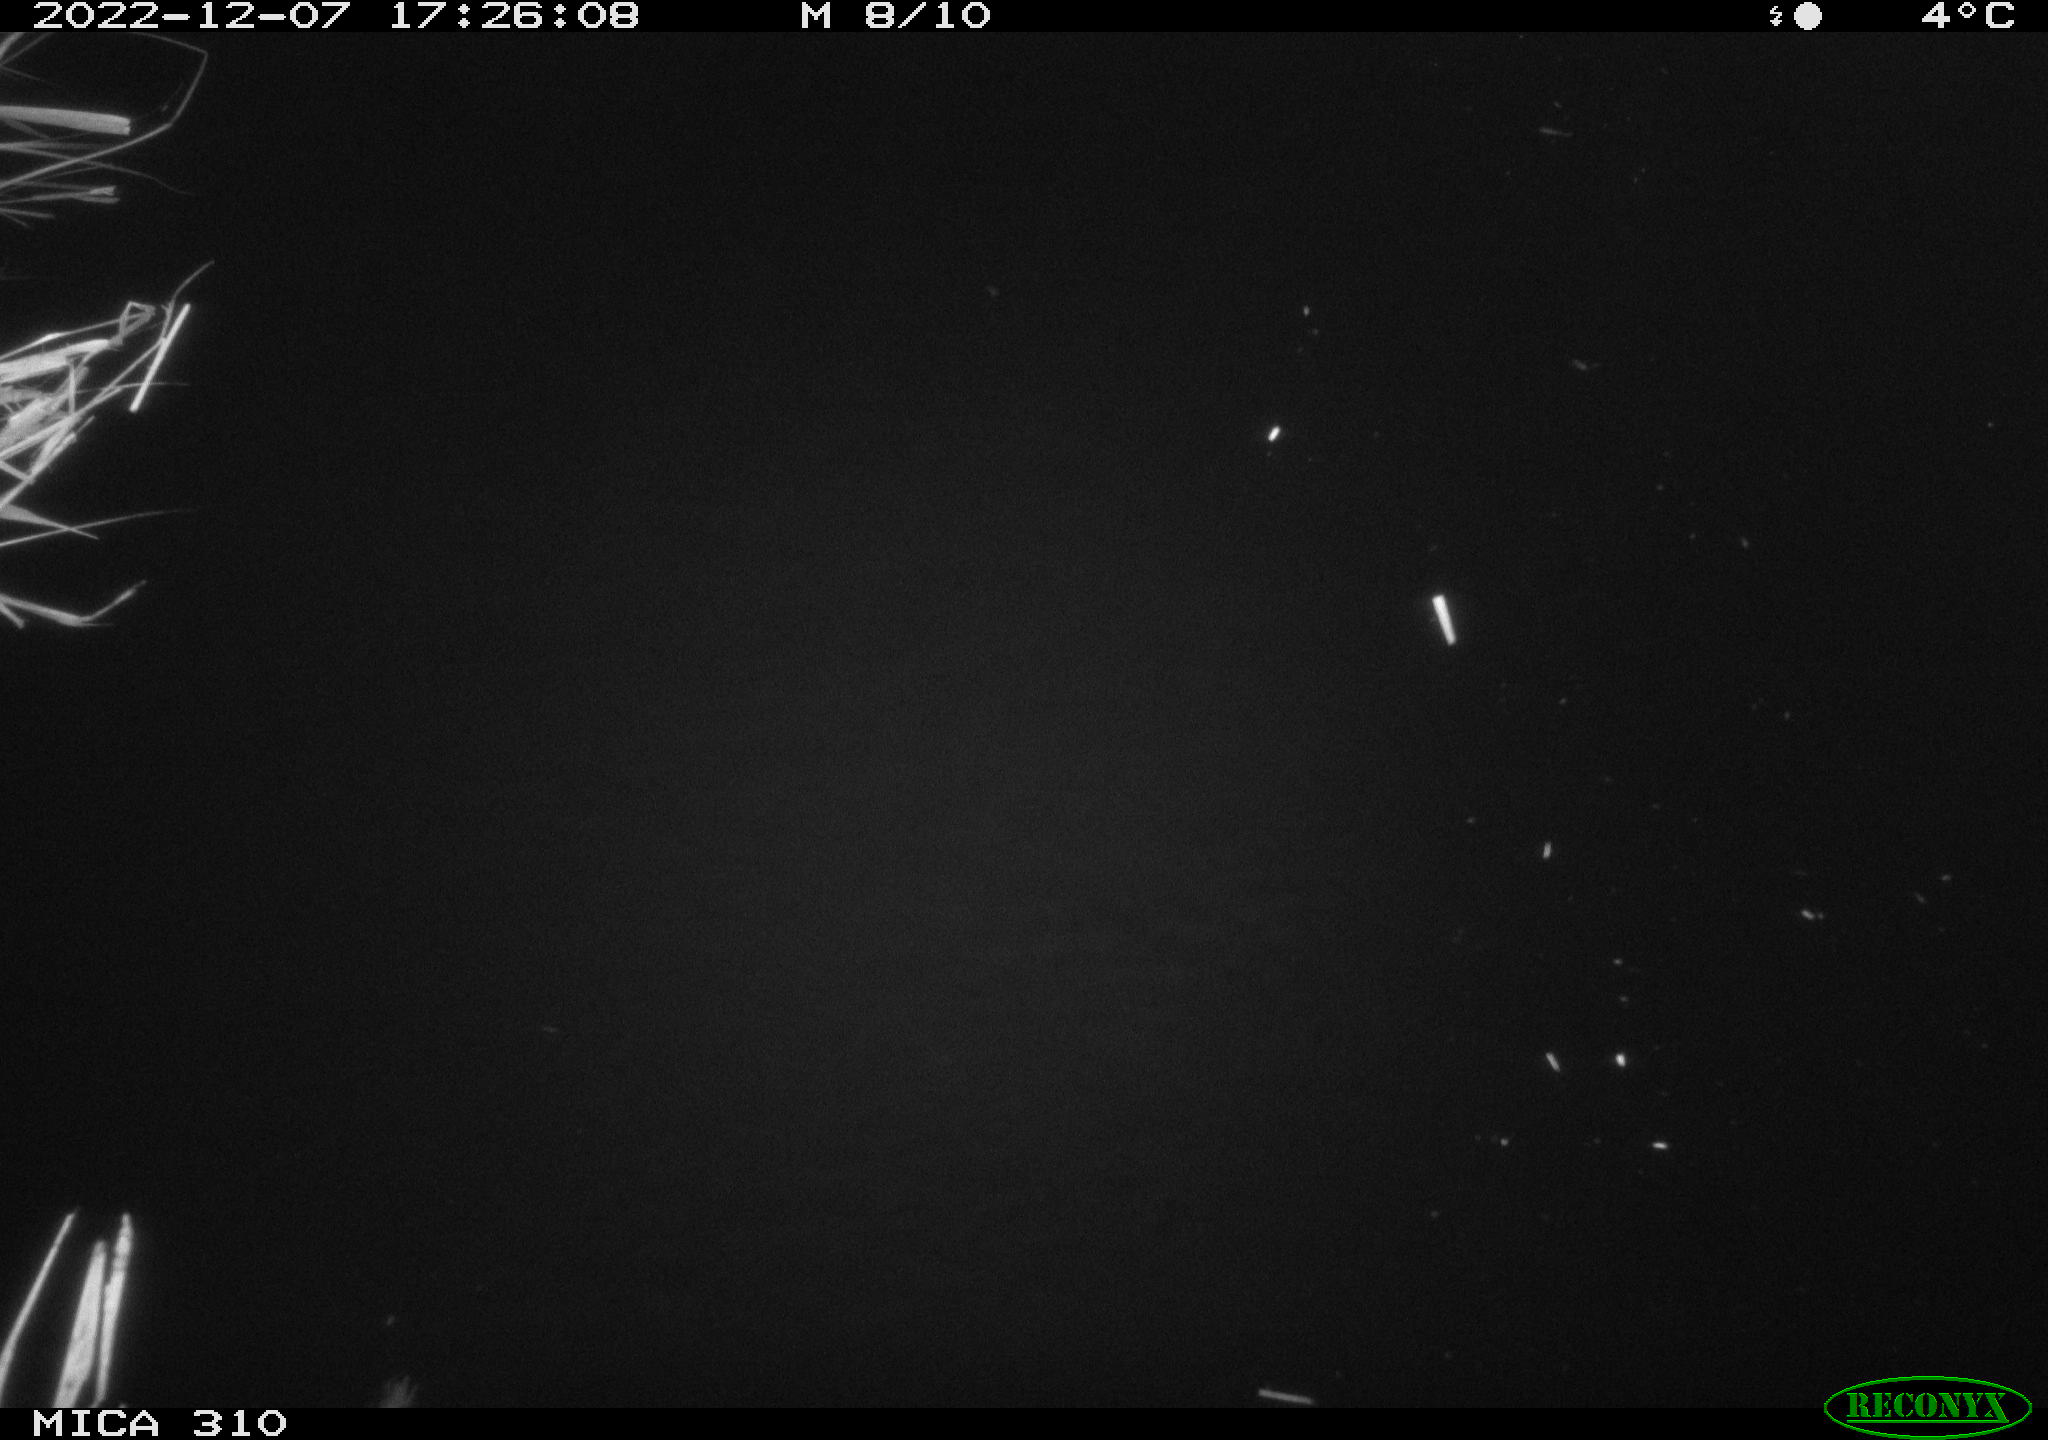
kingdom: Animalia
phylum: Chordata
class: Aves
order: Anseriformes
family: Anatidae
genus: Anas
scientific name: Anas
